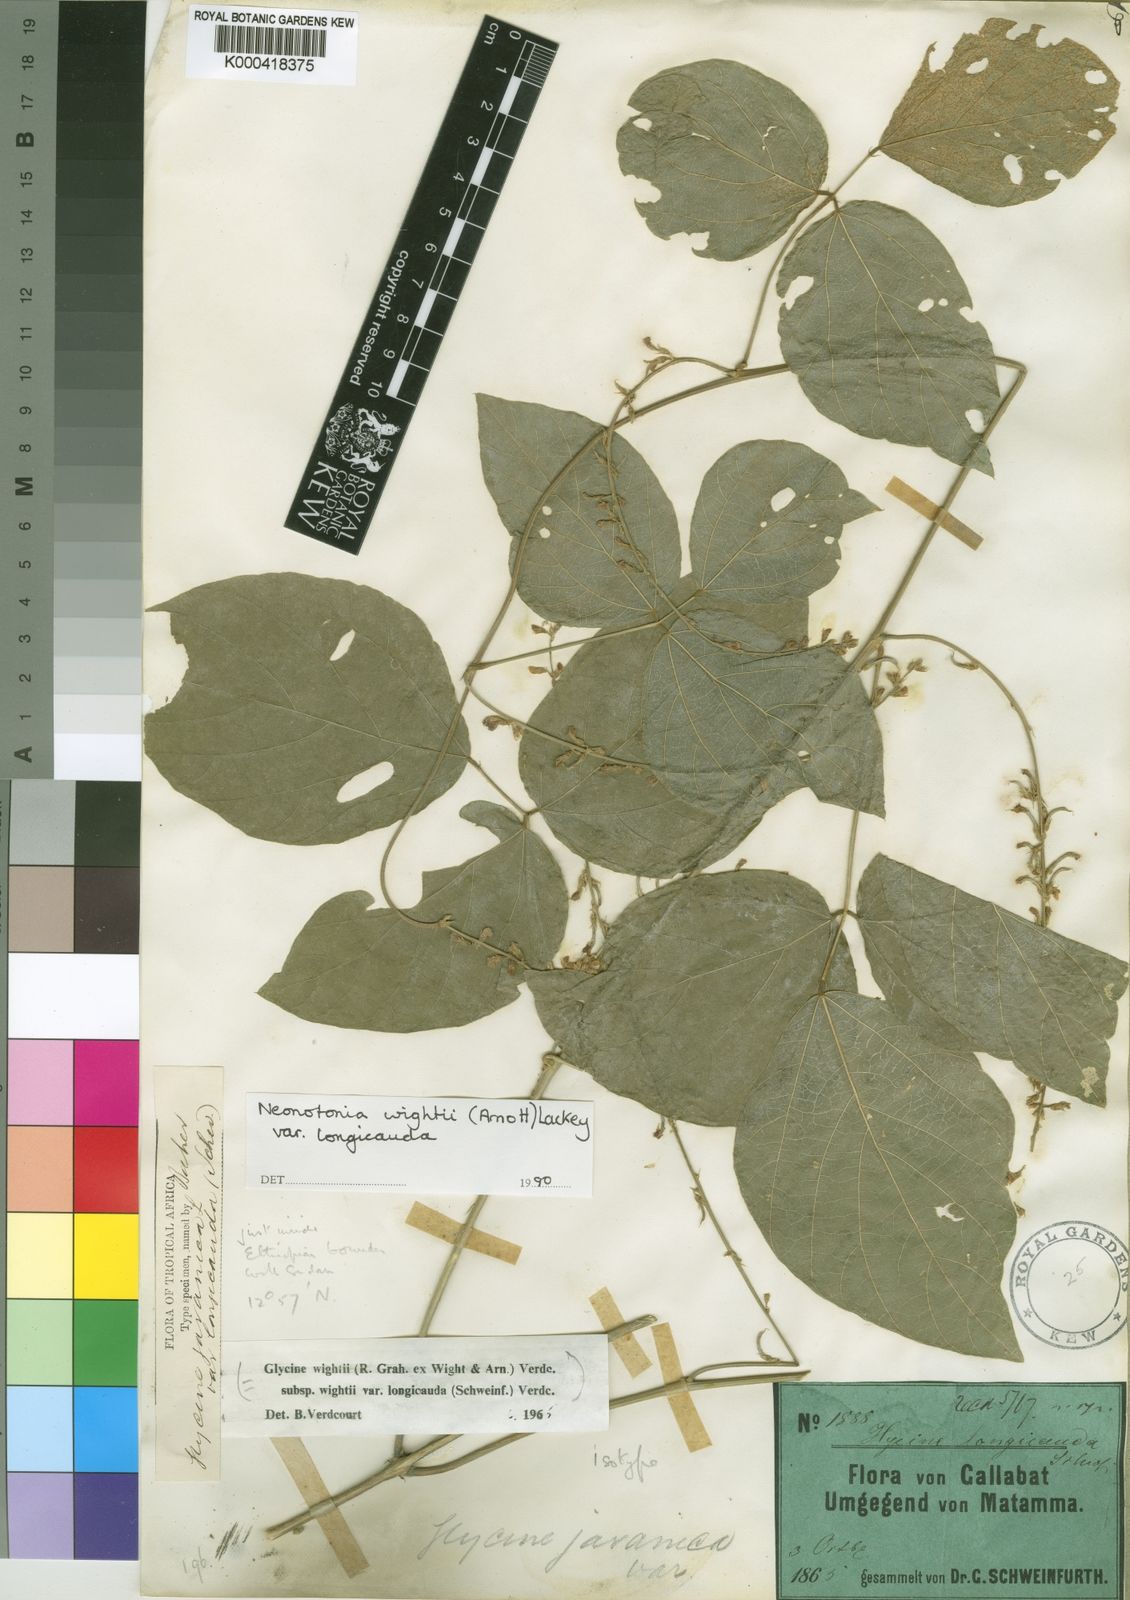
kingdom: Plantae
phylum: Tracheophyta
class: Magnoliopsida
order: Fabales
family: Fabaceae
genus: Neonotonia
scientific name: Neonotonia wightii
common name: Perennial soybean
